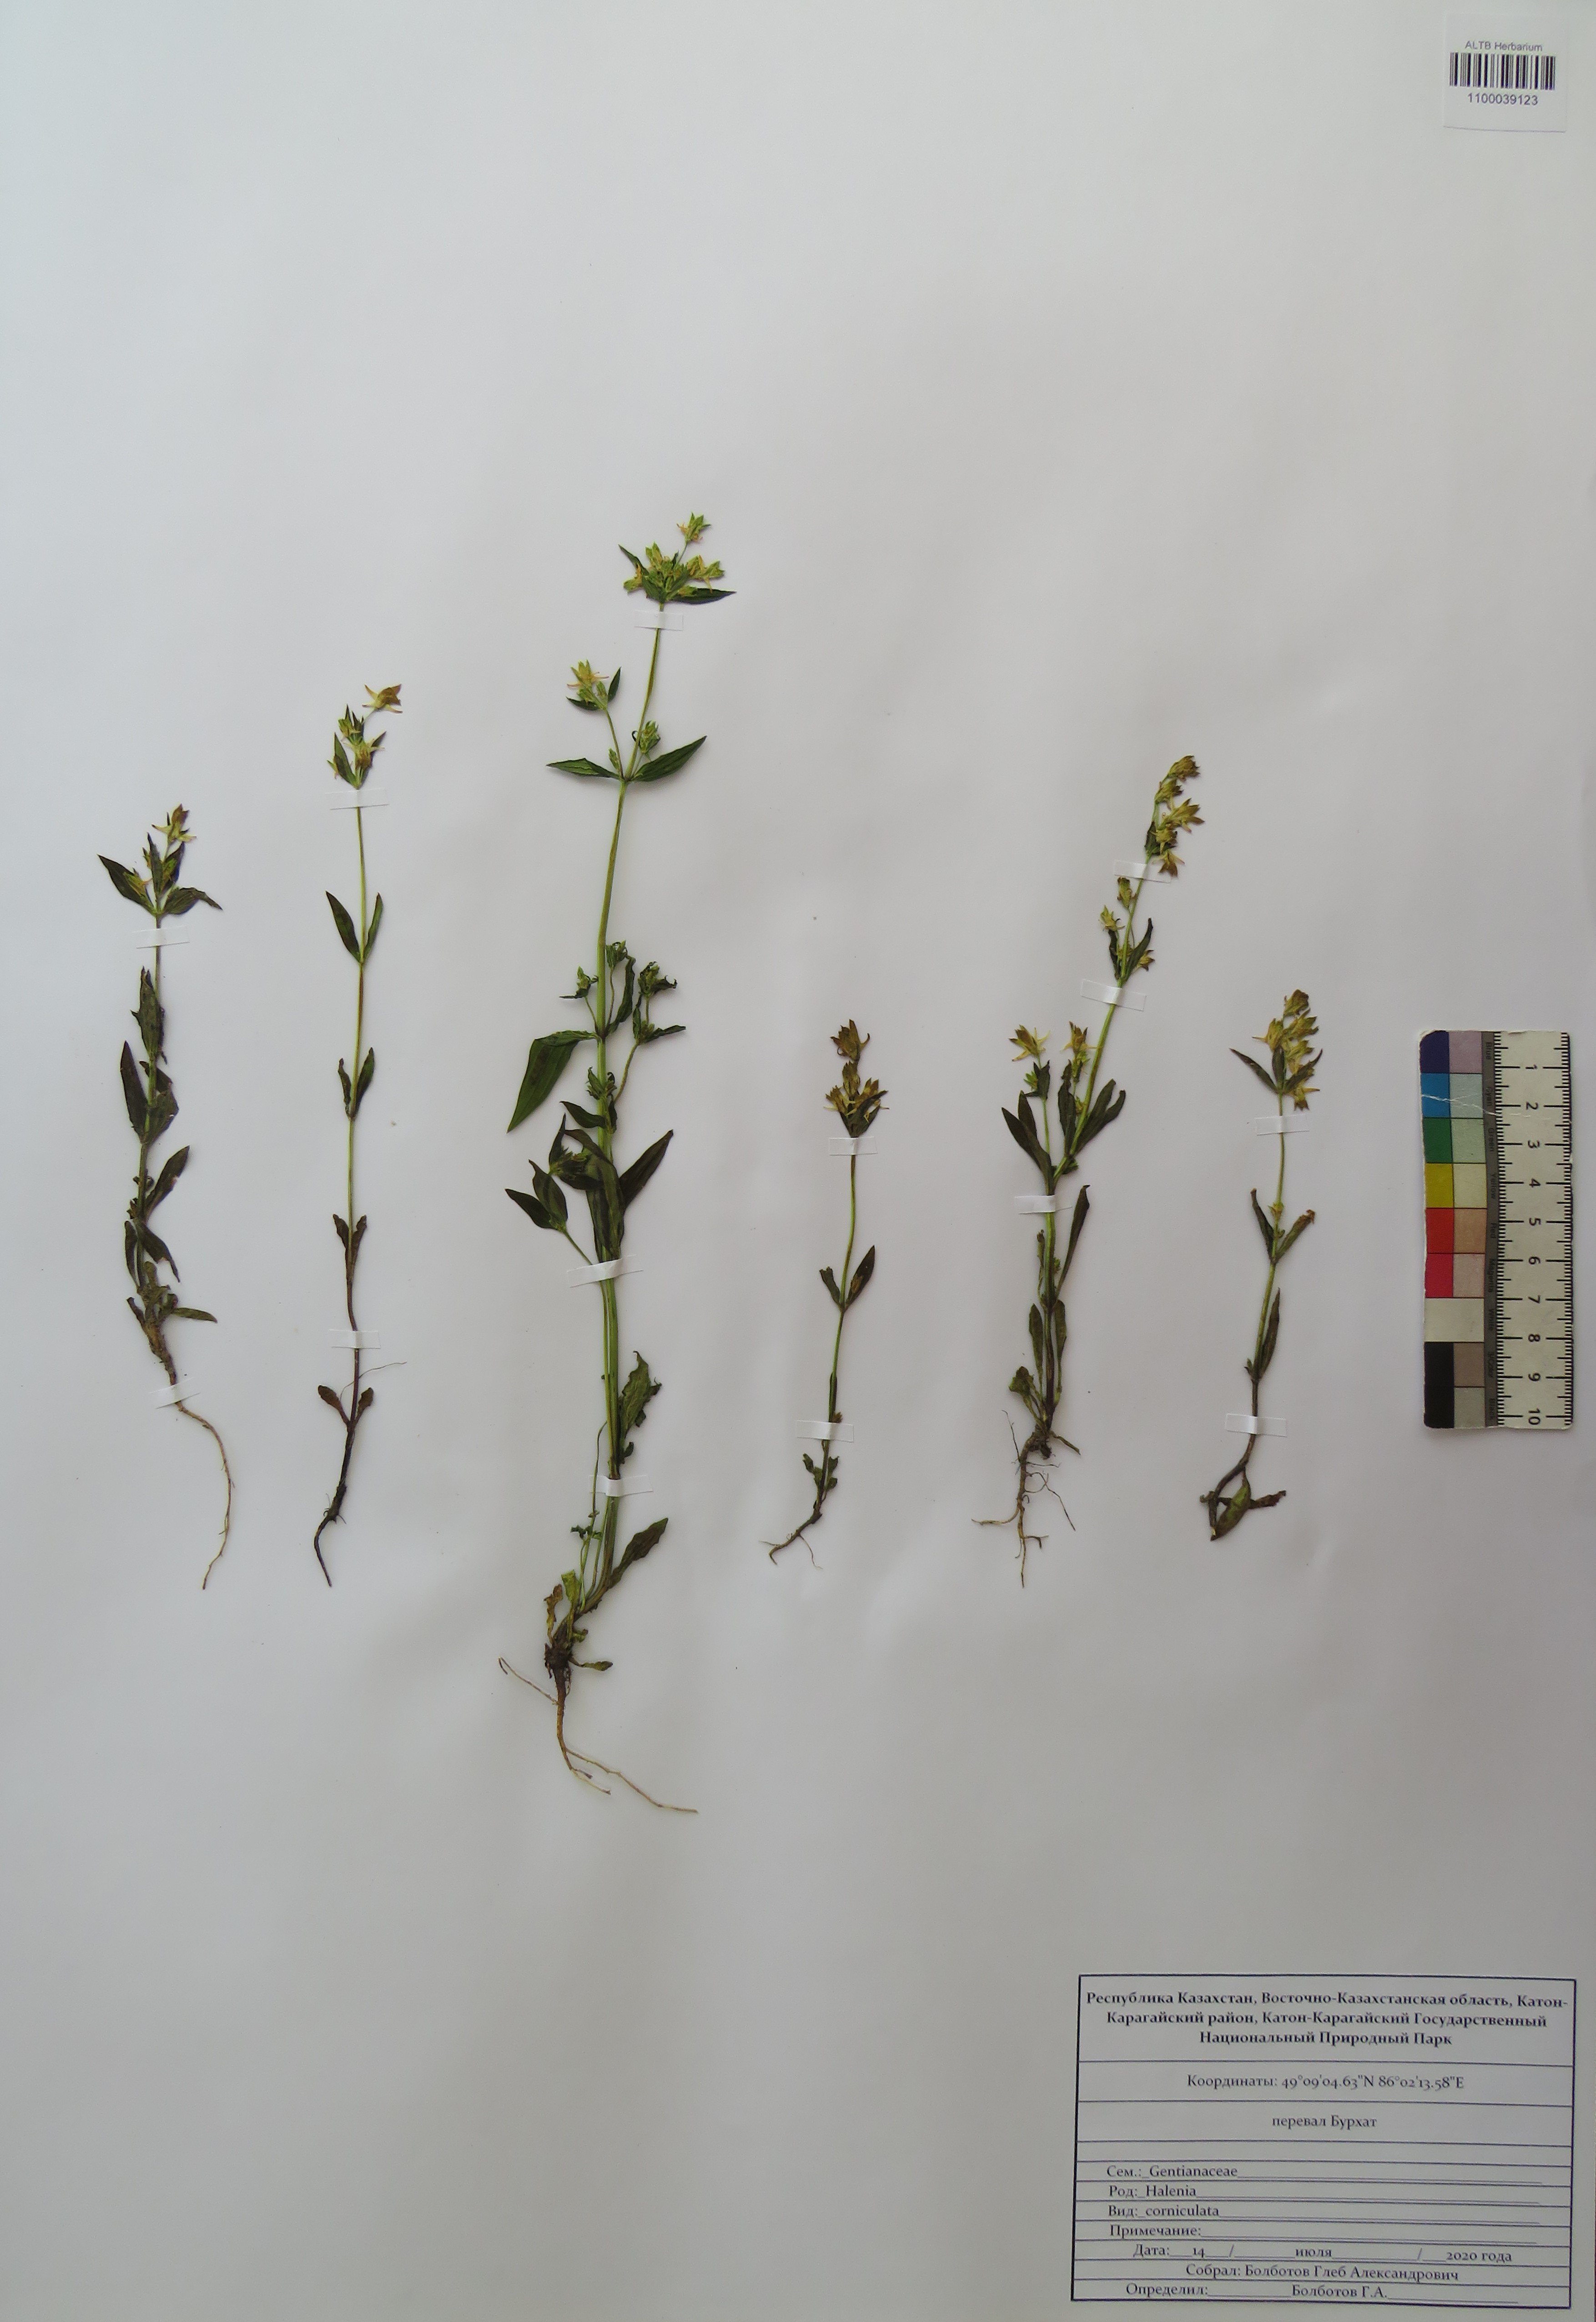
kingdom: Plantae
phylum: Tracheophyta
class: Magnoliopsida
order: Gentianales
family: Gentianaceae
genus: Halenia
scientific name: Halenia corniculata
